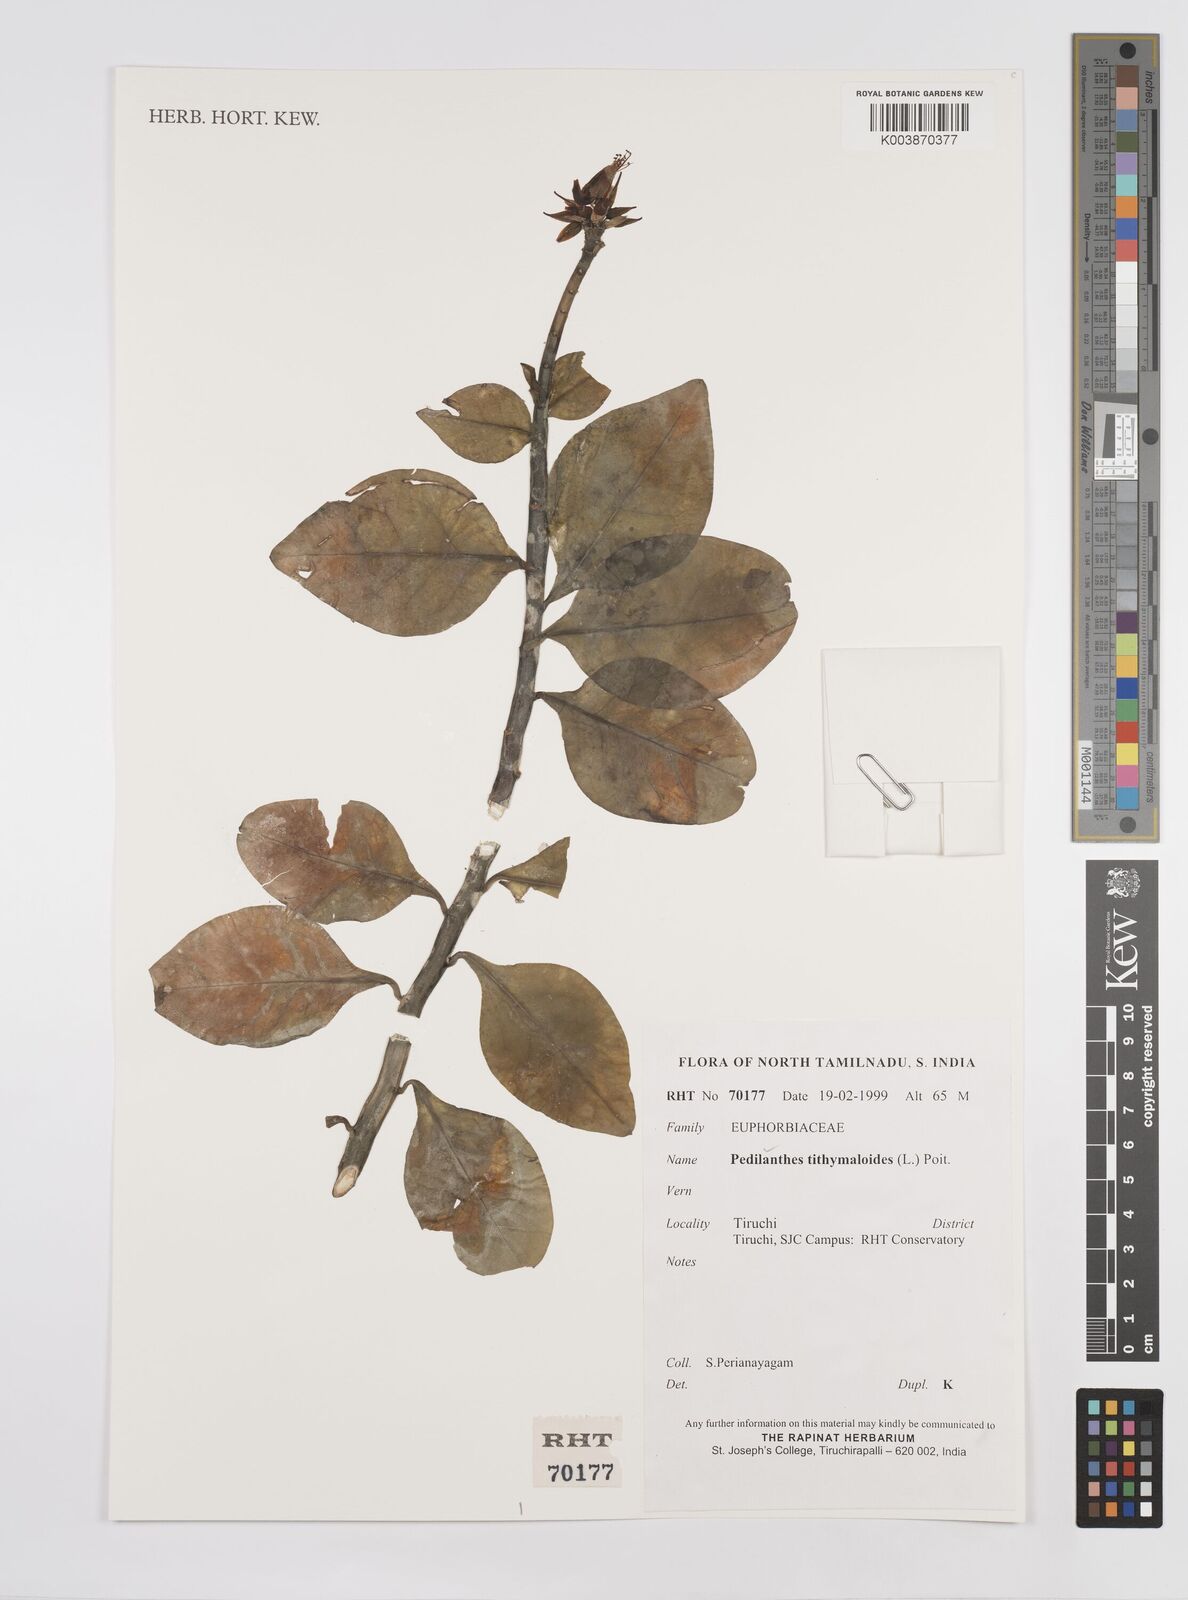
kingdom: Plantae
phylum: Tracheophyta
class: Magnoliopsida
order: Malpighiales
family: Euphorbiaceae
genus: Pedilanthus
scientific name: Pedilanthus
